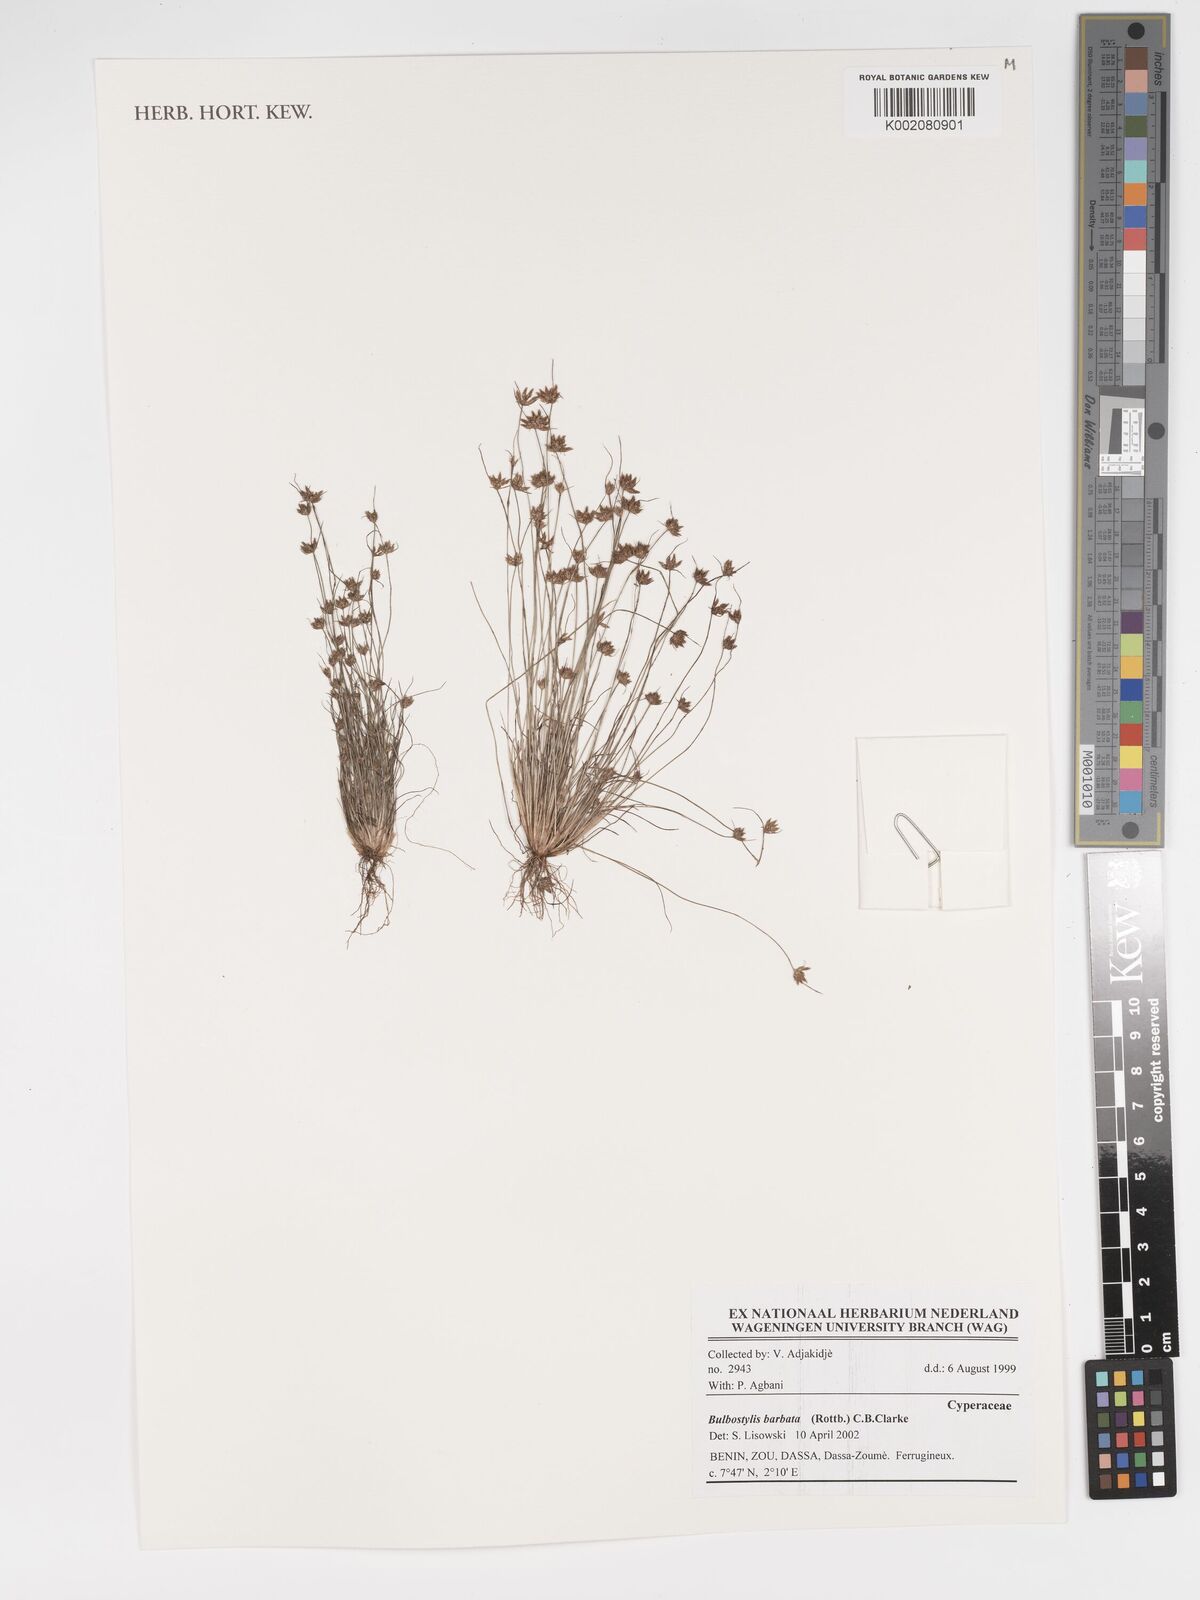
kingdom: Plantae
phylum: Tracheophyta
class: Liliopsida
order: Poales
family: Cyperaceae
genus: Bulbostylis
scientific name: Bulbostylis barbata
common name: Watergrass
